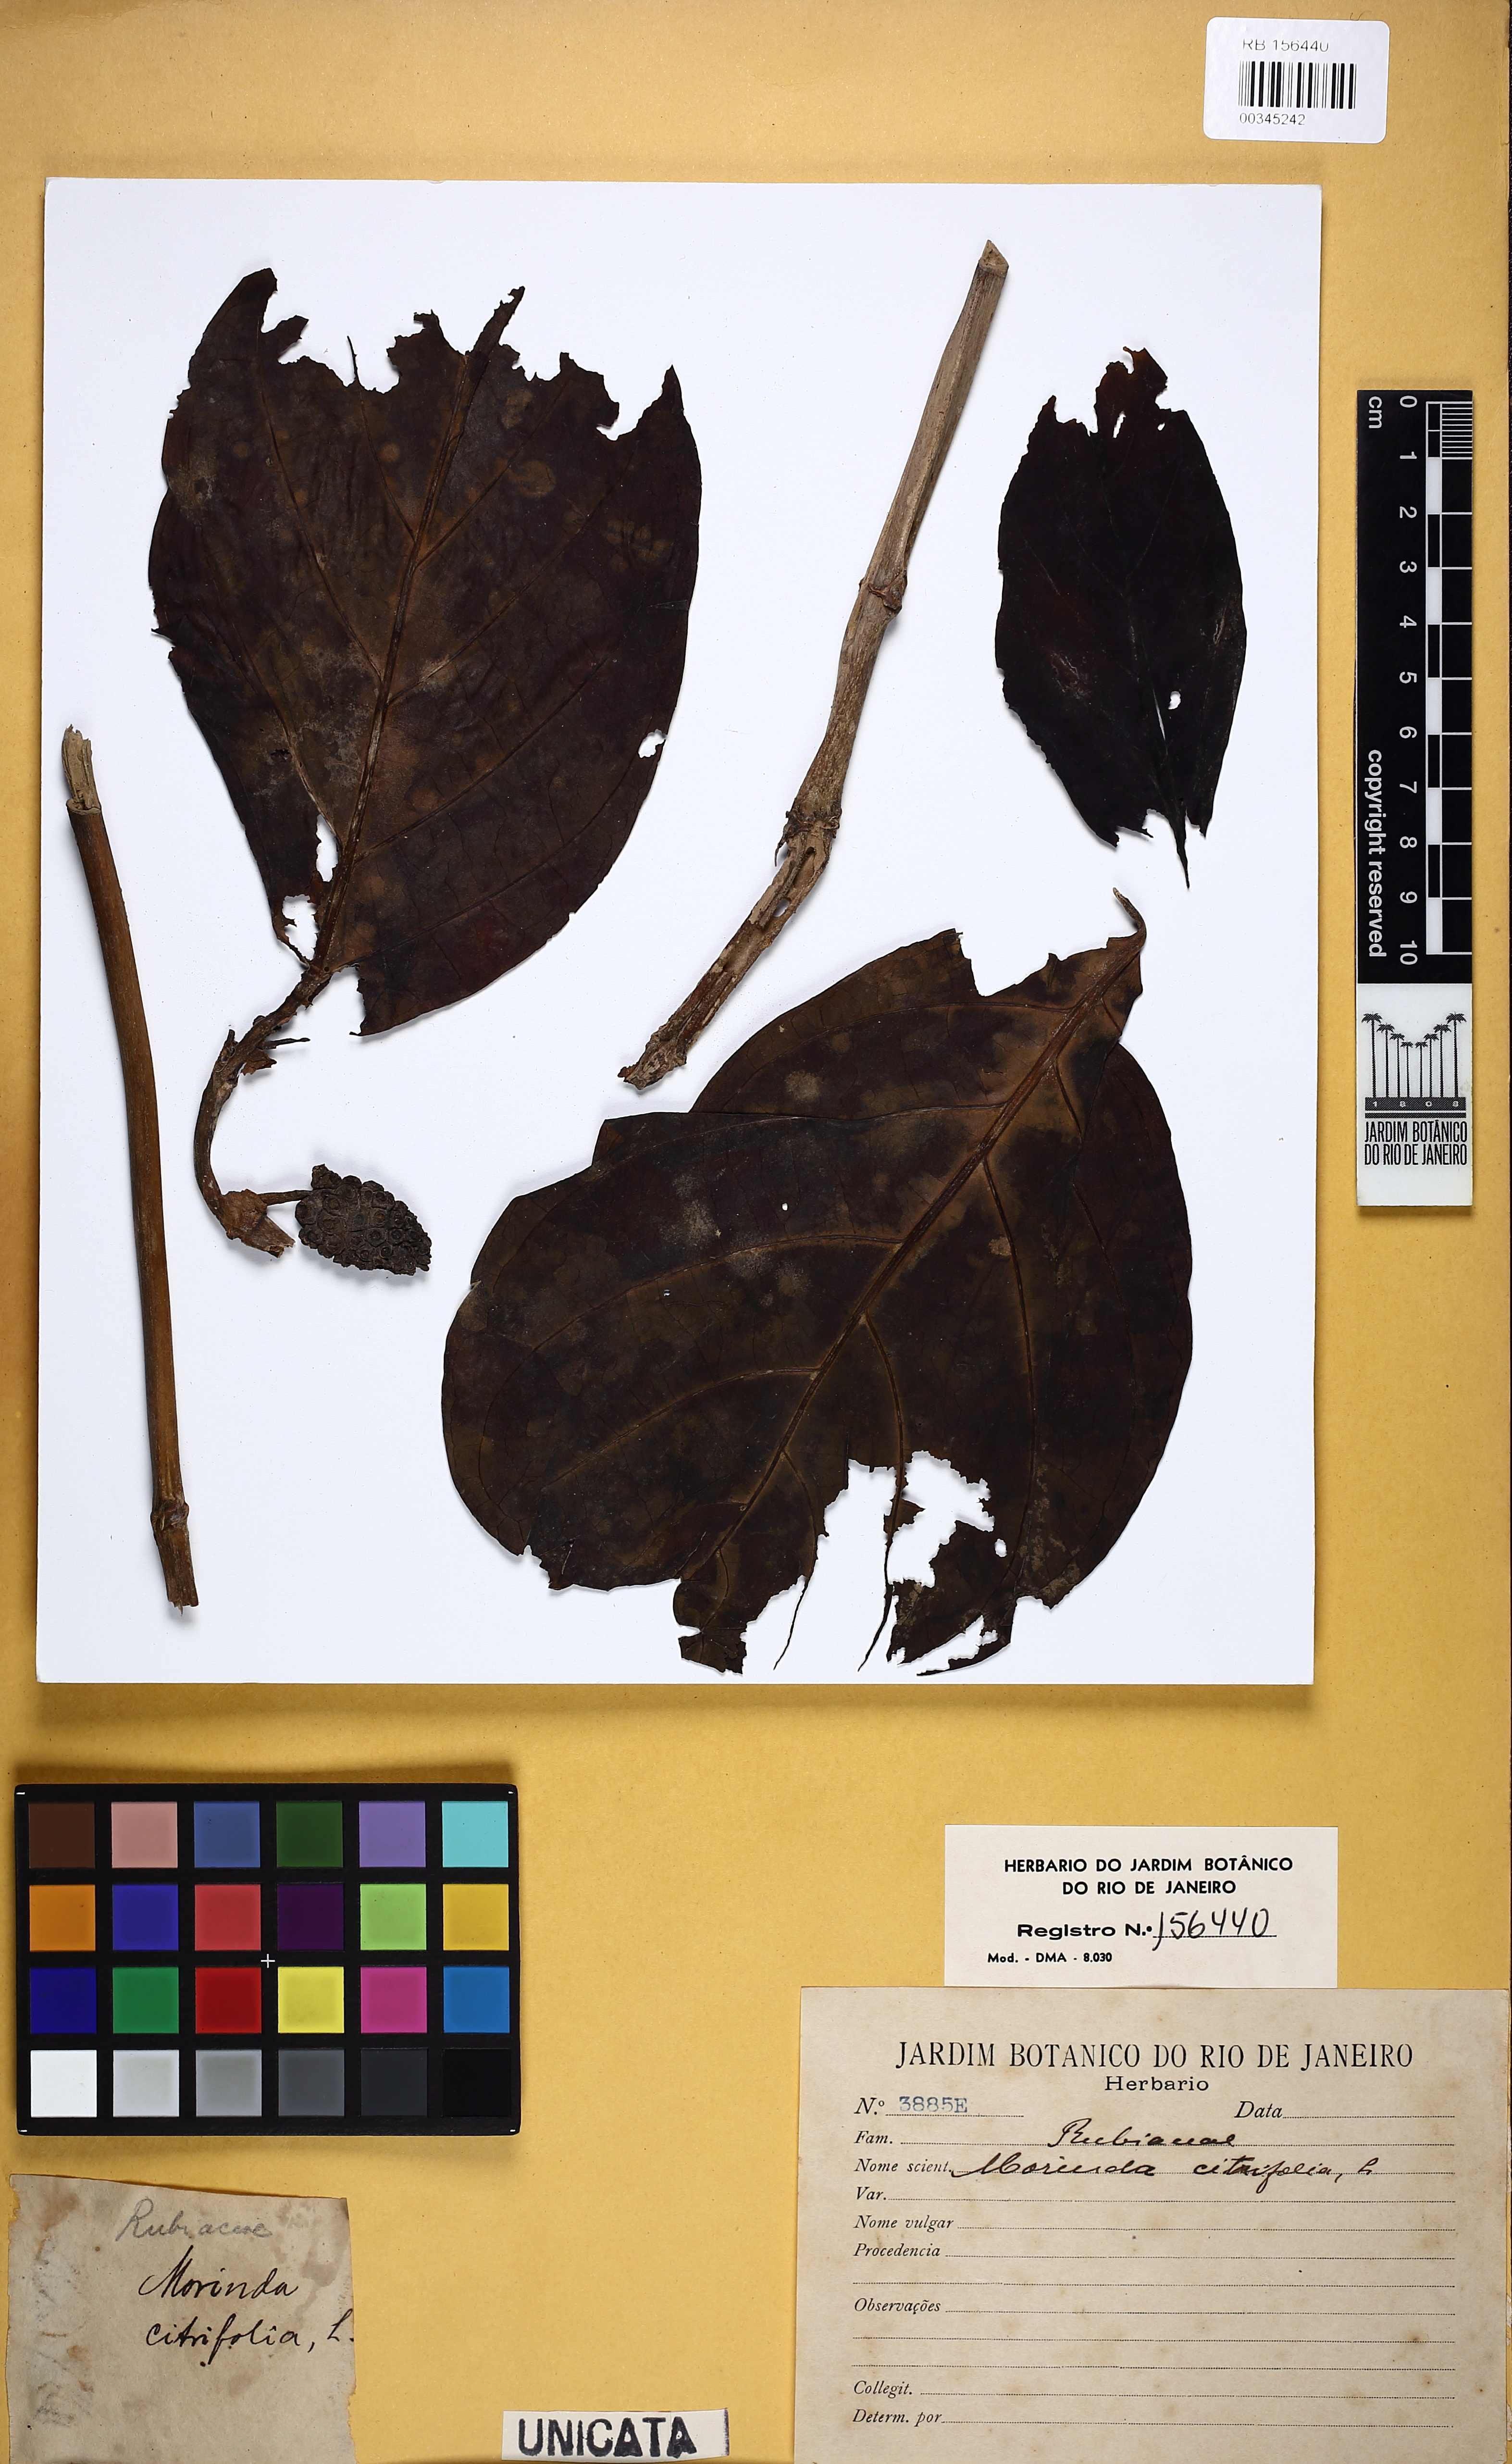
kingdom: Plantae
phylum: Tracheophyta
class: Magnoliopsida
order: Gentianales
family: Rubiaceae
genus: Morinda
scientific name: Morinda citrifolia
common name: Indian-mulberry
